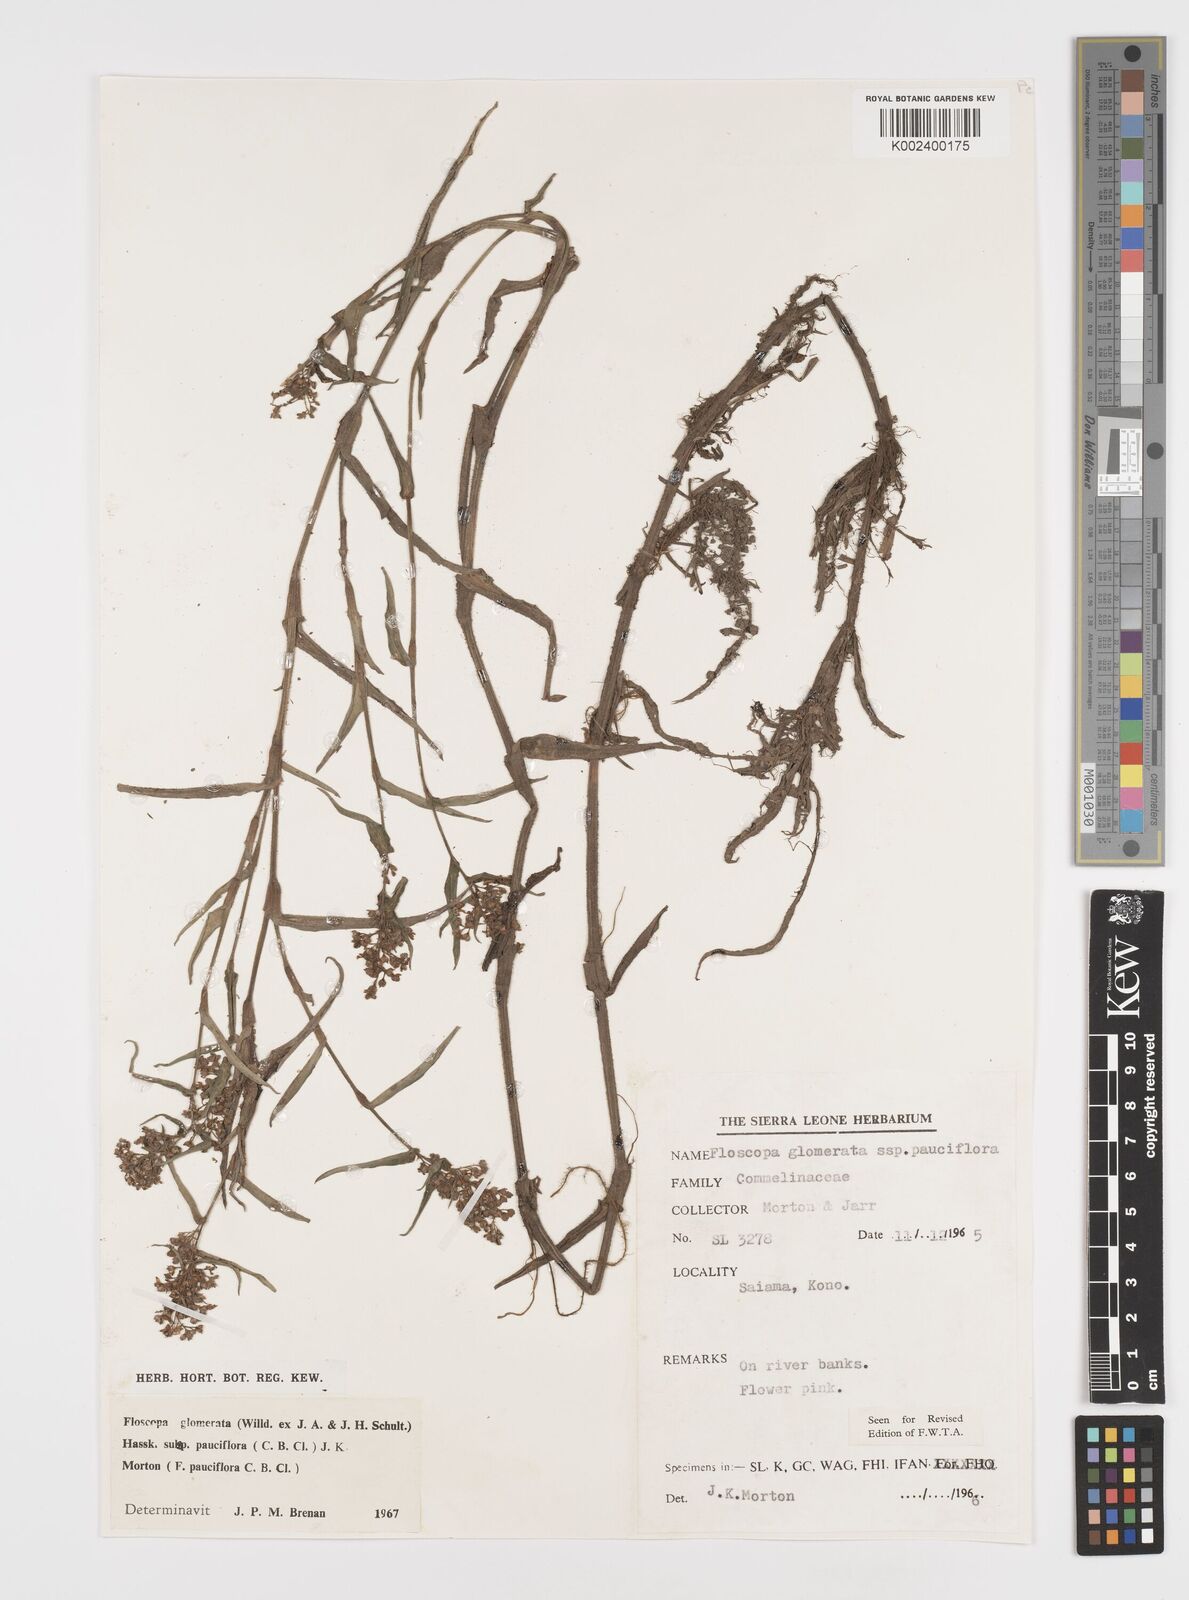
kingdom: Plantae
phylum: Tracheophyta
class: Liliopsida
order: Commelinales
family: Commelinaceae
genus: Floscopa
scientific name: Floscopa glomerata
